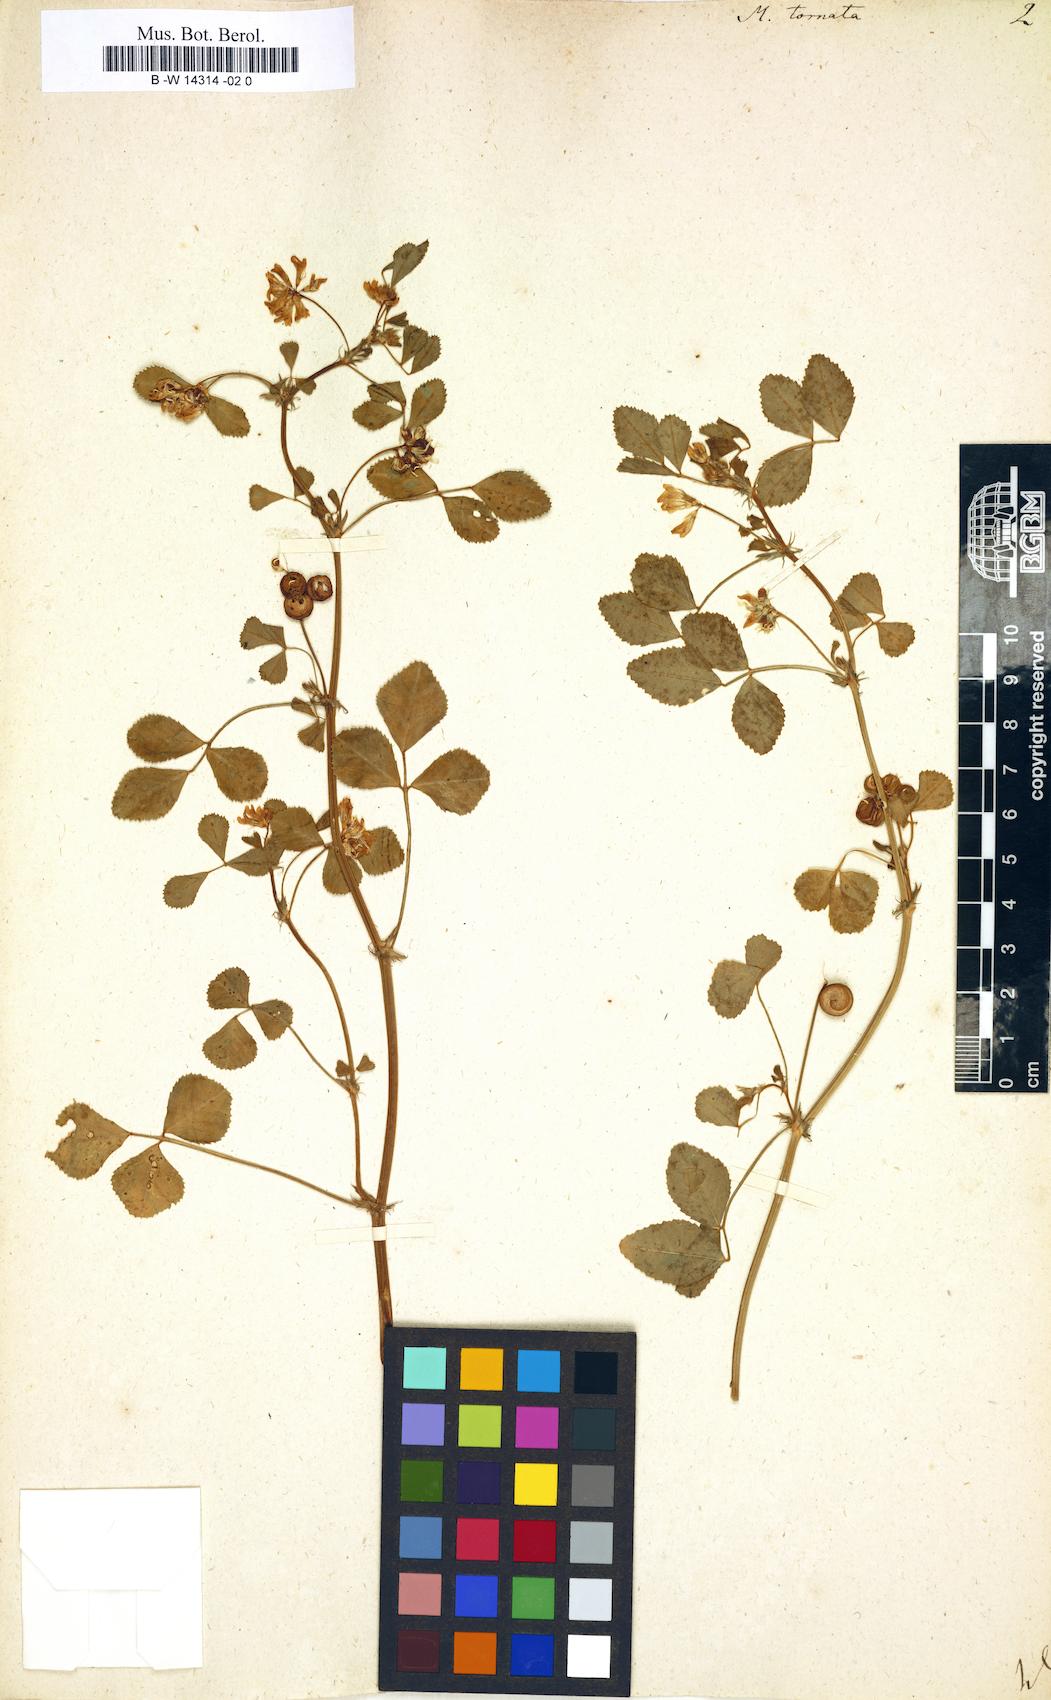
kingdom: Plantae
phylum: Tracheophyta
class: Magnoliopsida
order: Fabales
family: Fabaceae
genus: Medicago
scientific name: Medicago tornata
